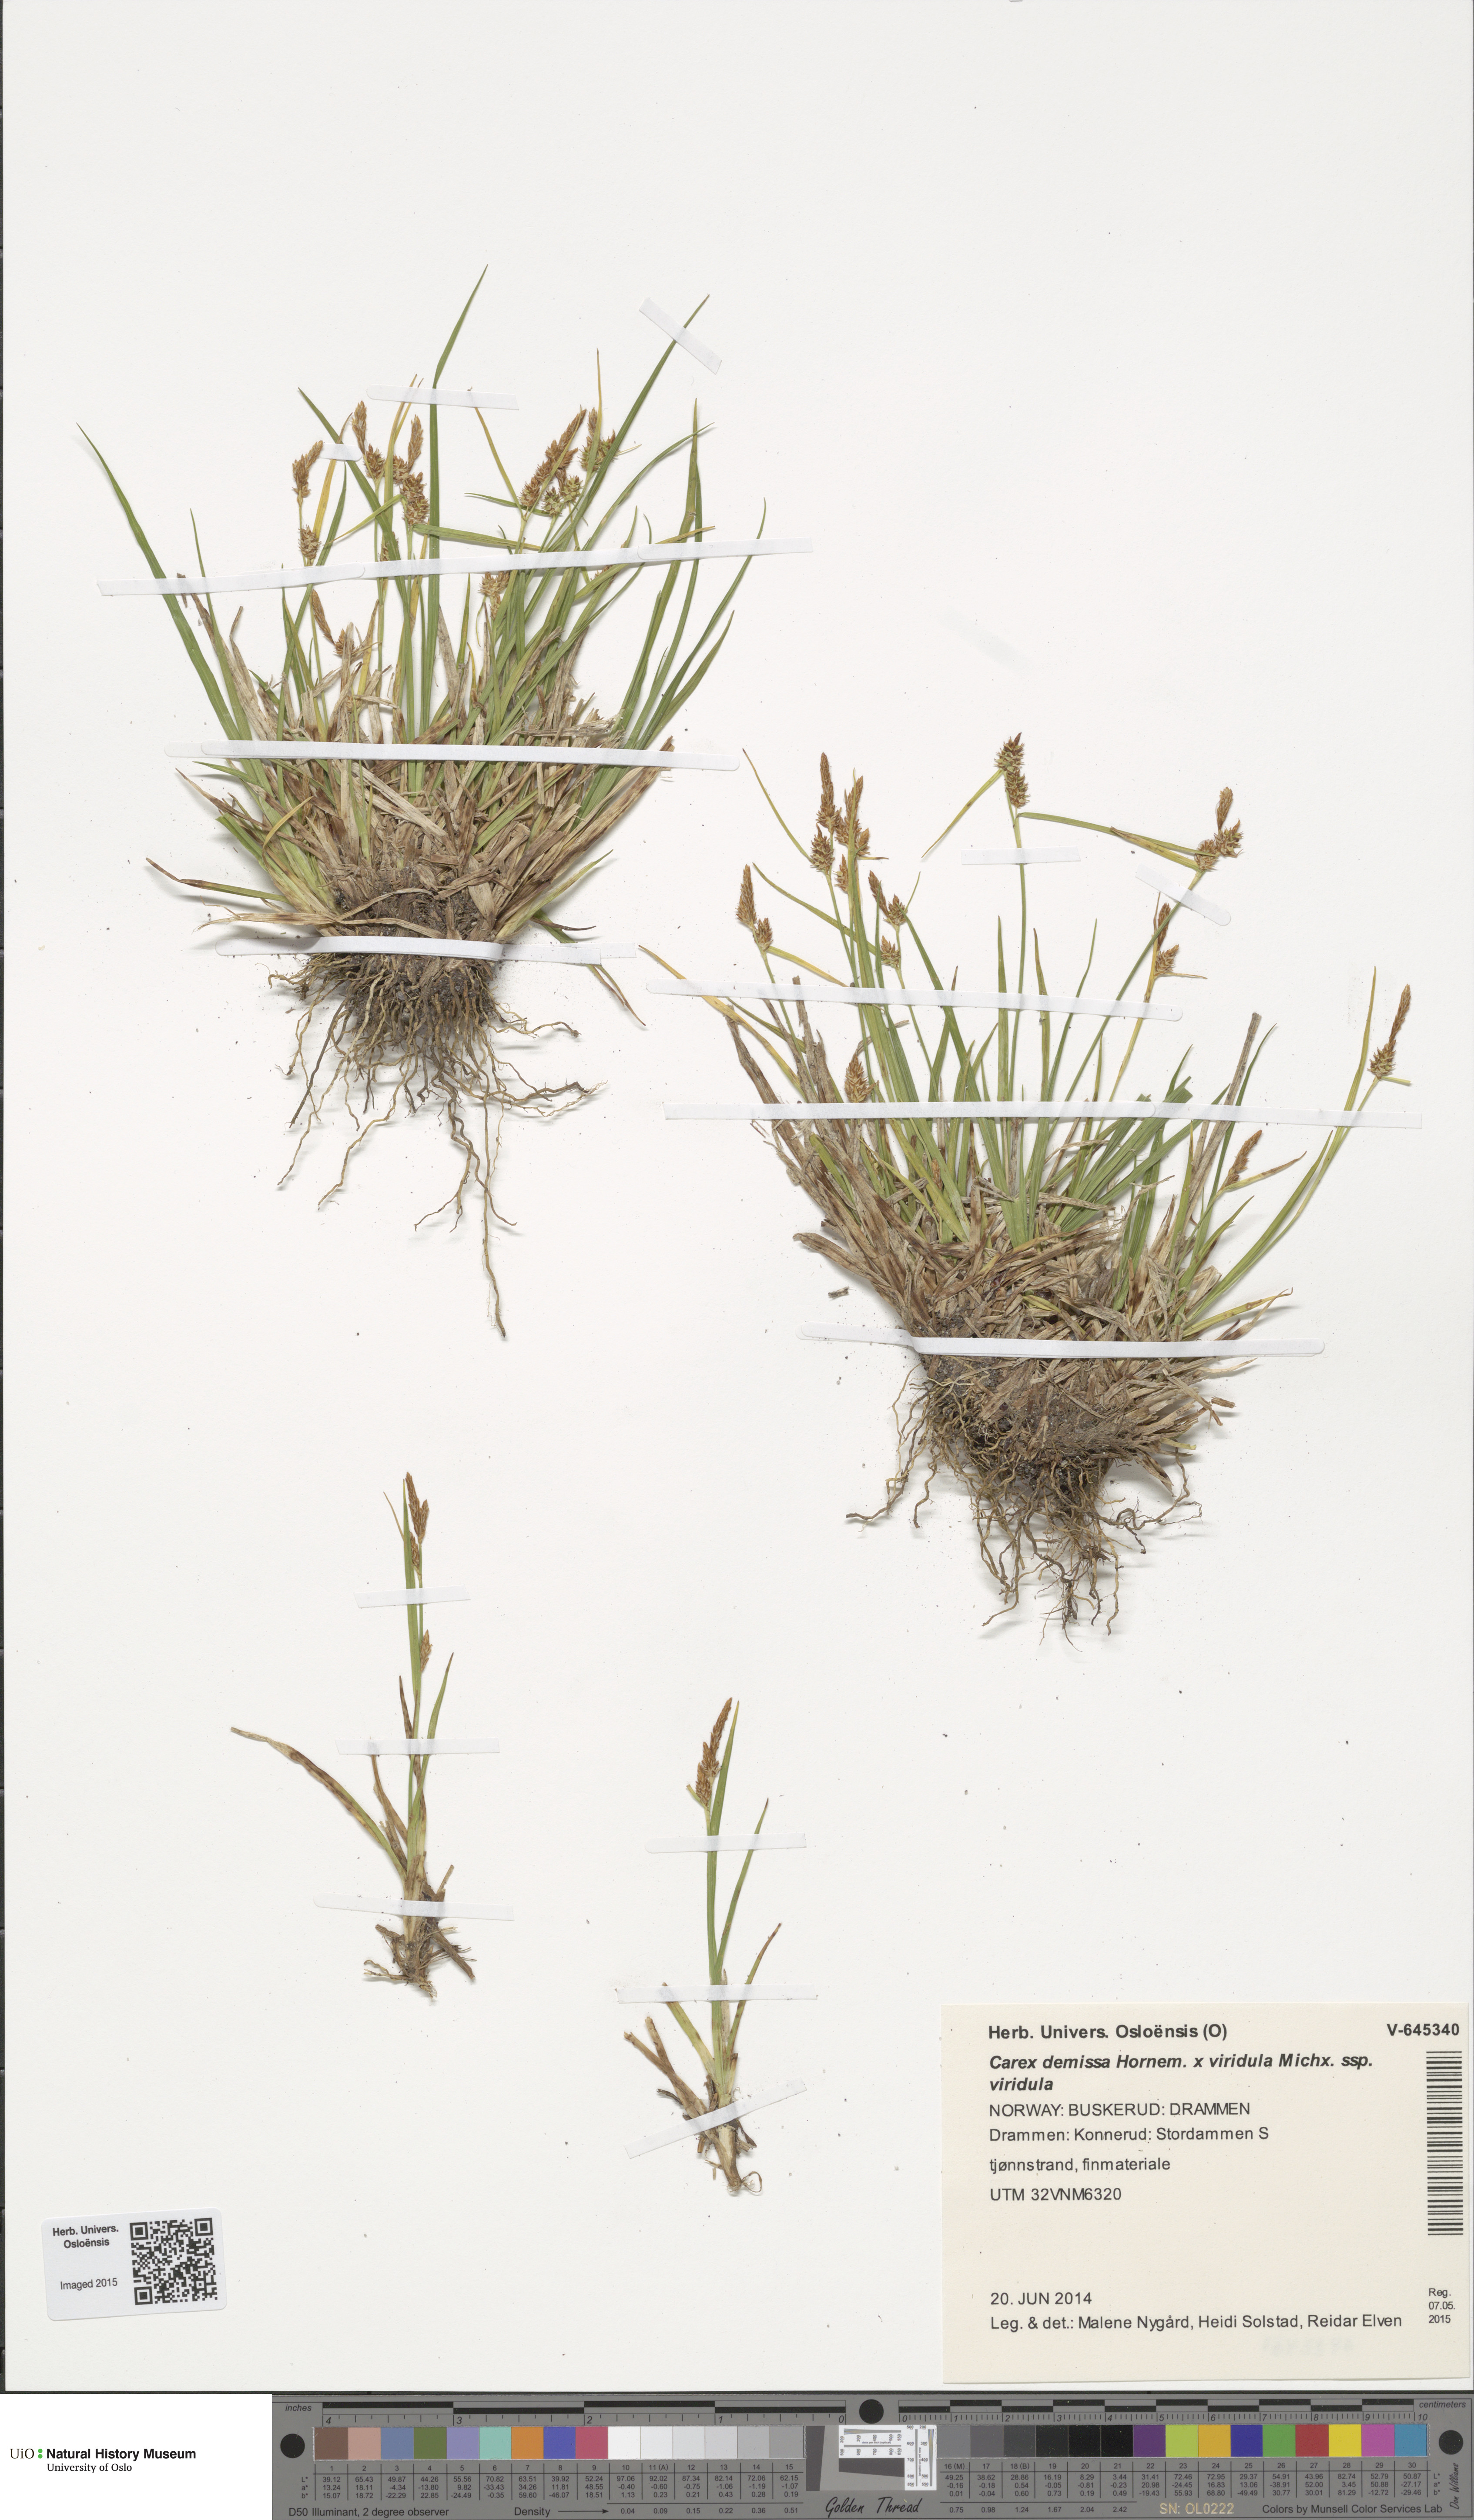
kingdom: Plantae
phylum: Tracheophyta
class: Liliopsida
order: Poales
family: Cyperaceae
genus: Carex
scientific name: Carex
